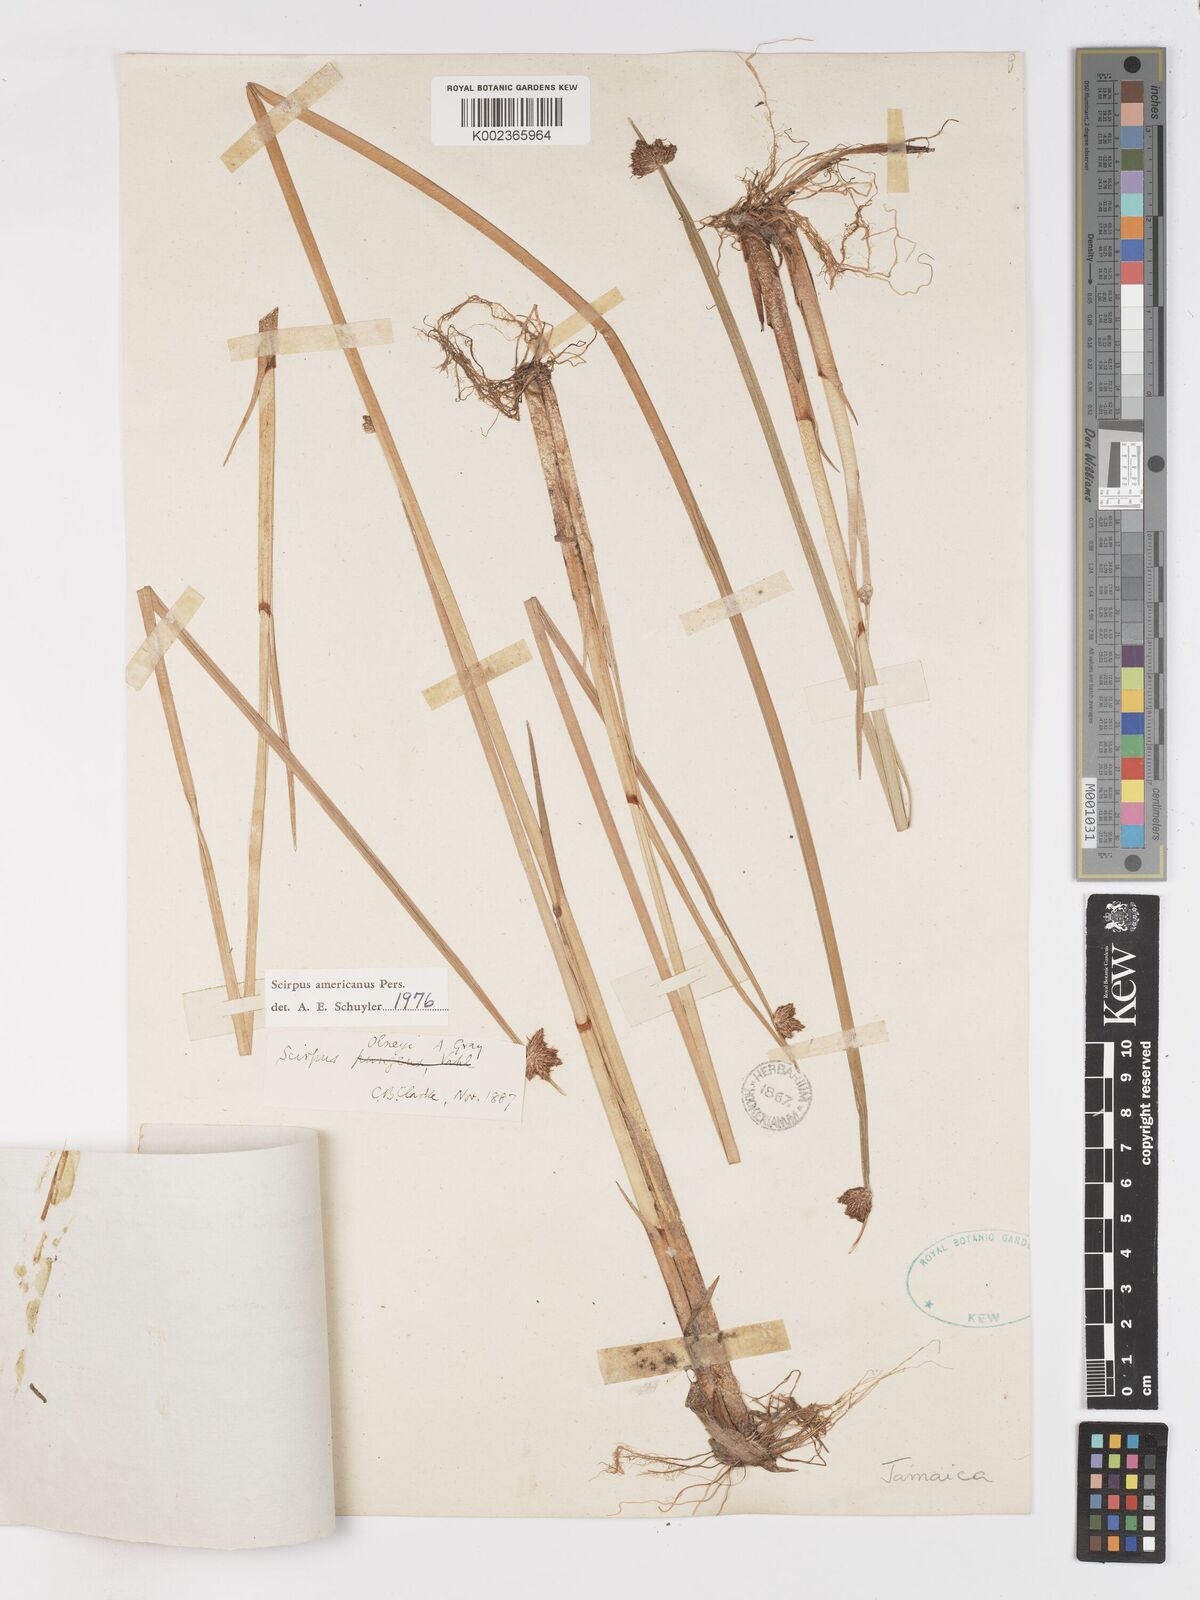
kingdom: Plantae
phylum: Tracheophyta
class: Liliopsida
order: Poales
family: Cyperaceae
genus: Schoenoplectus
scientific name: Schoenoplectus americanus
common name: American three-square bulrush
